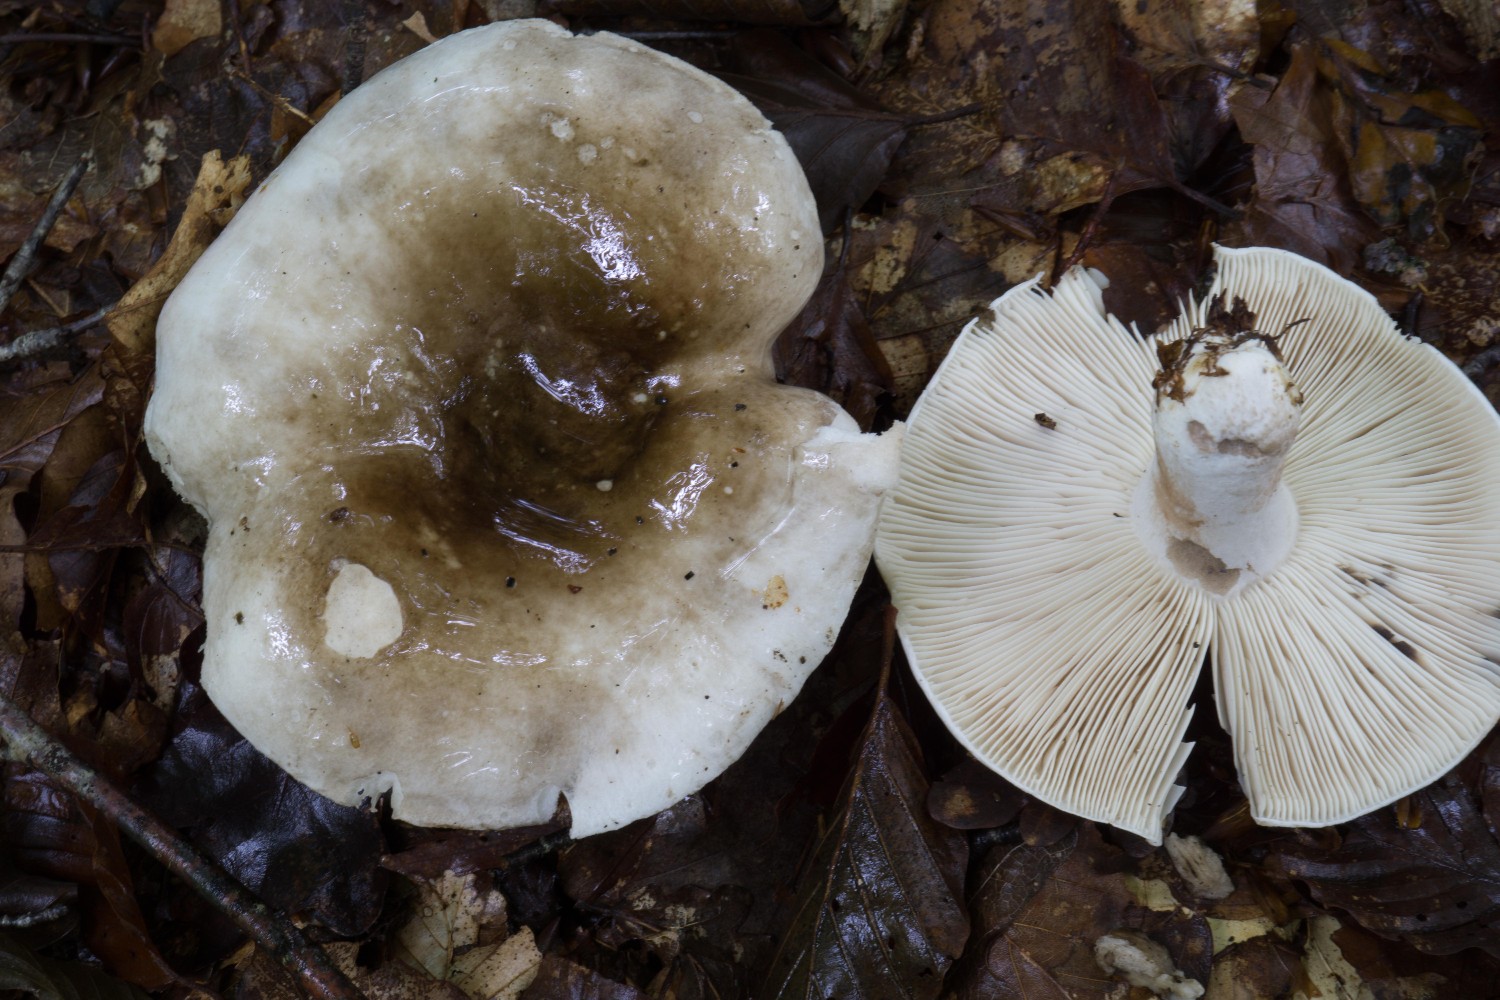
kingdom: Fungi
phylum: Basidiomycota
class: Agaricomycetes
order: Russulales
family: Russulaceae
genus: Russula
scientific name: Russula anthracina
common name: kul-skørhat
